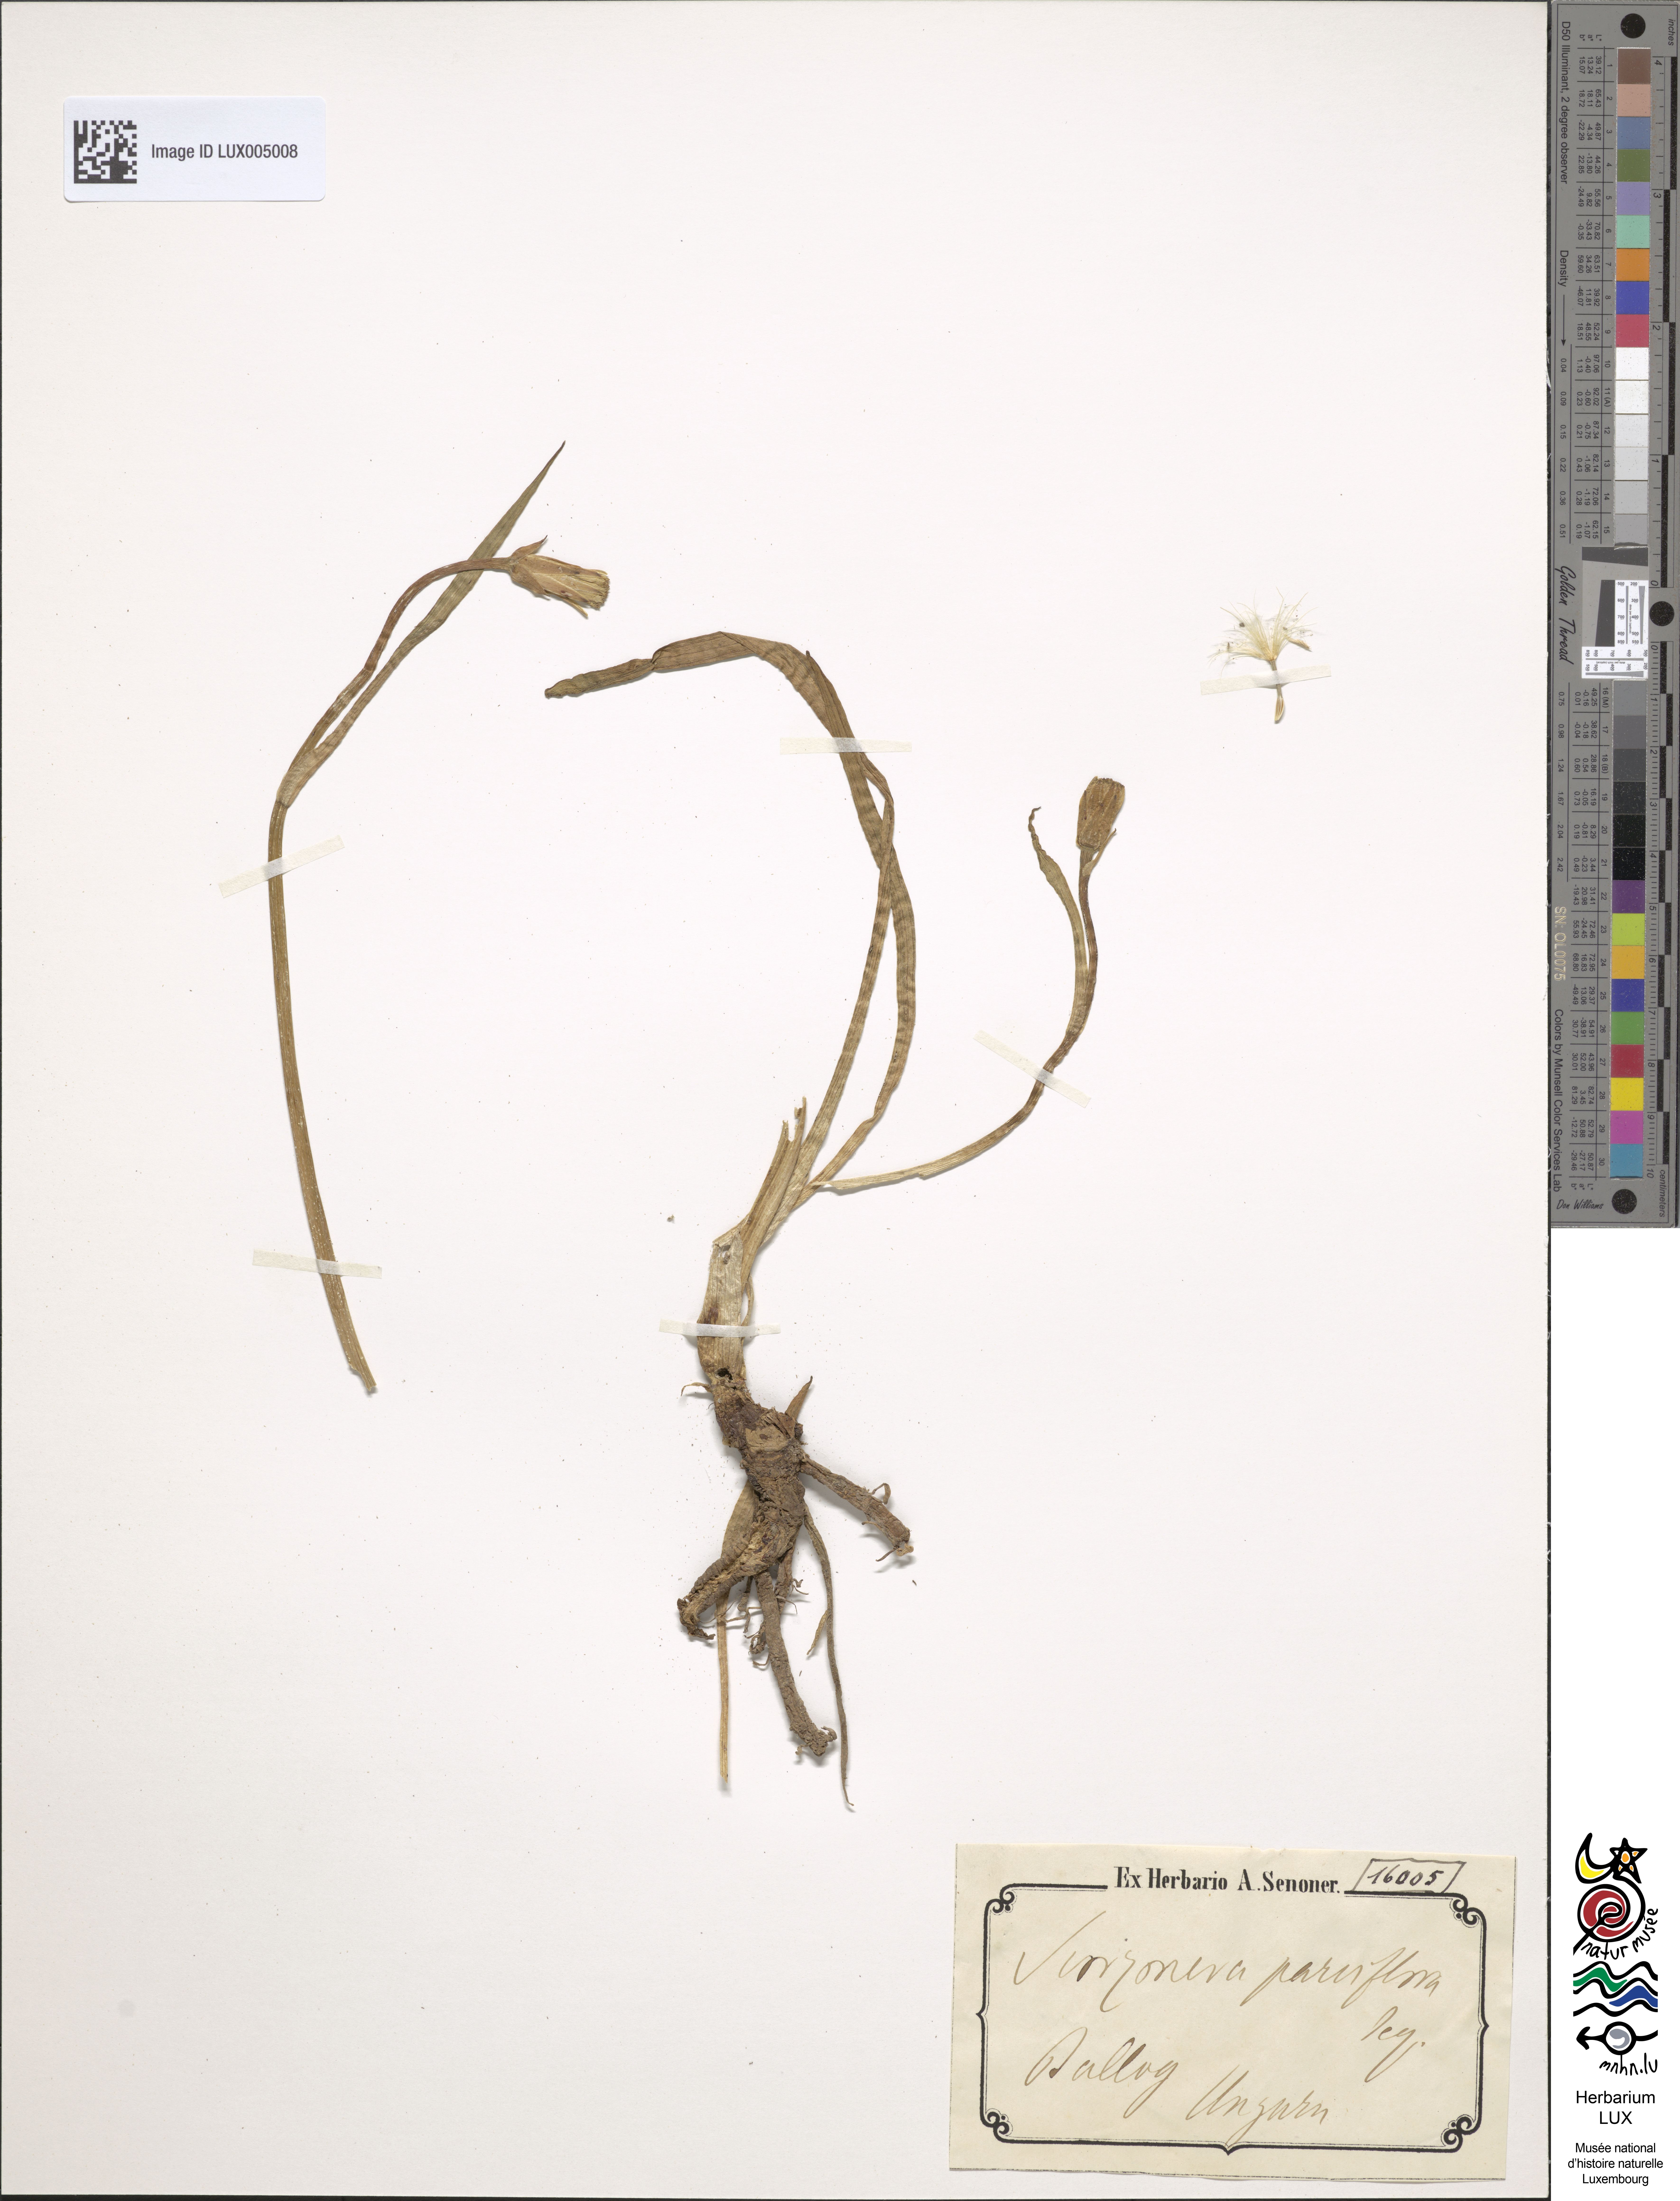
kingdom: Plantae
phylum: Tracheophyta
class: Magnoliopsida
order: Asterales
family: Asteraceae
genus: Scorzonera
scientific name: Scorzonera parviflora
